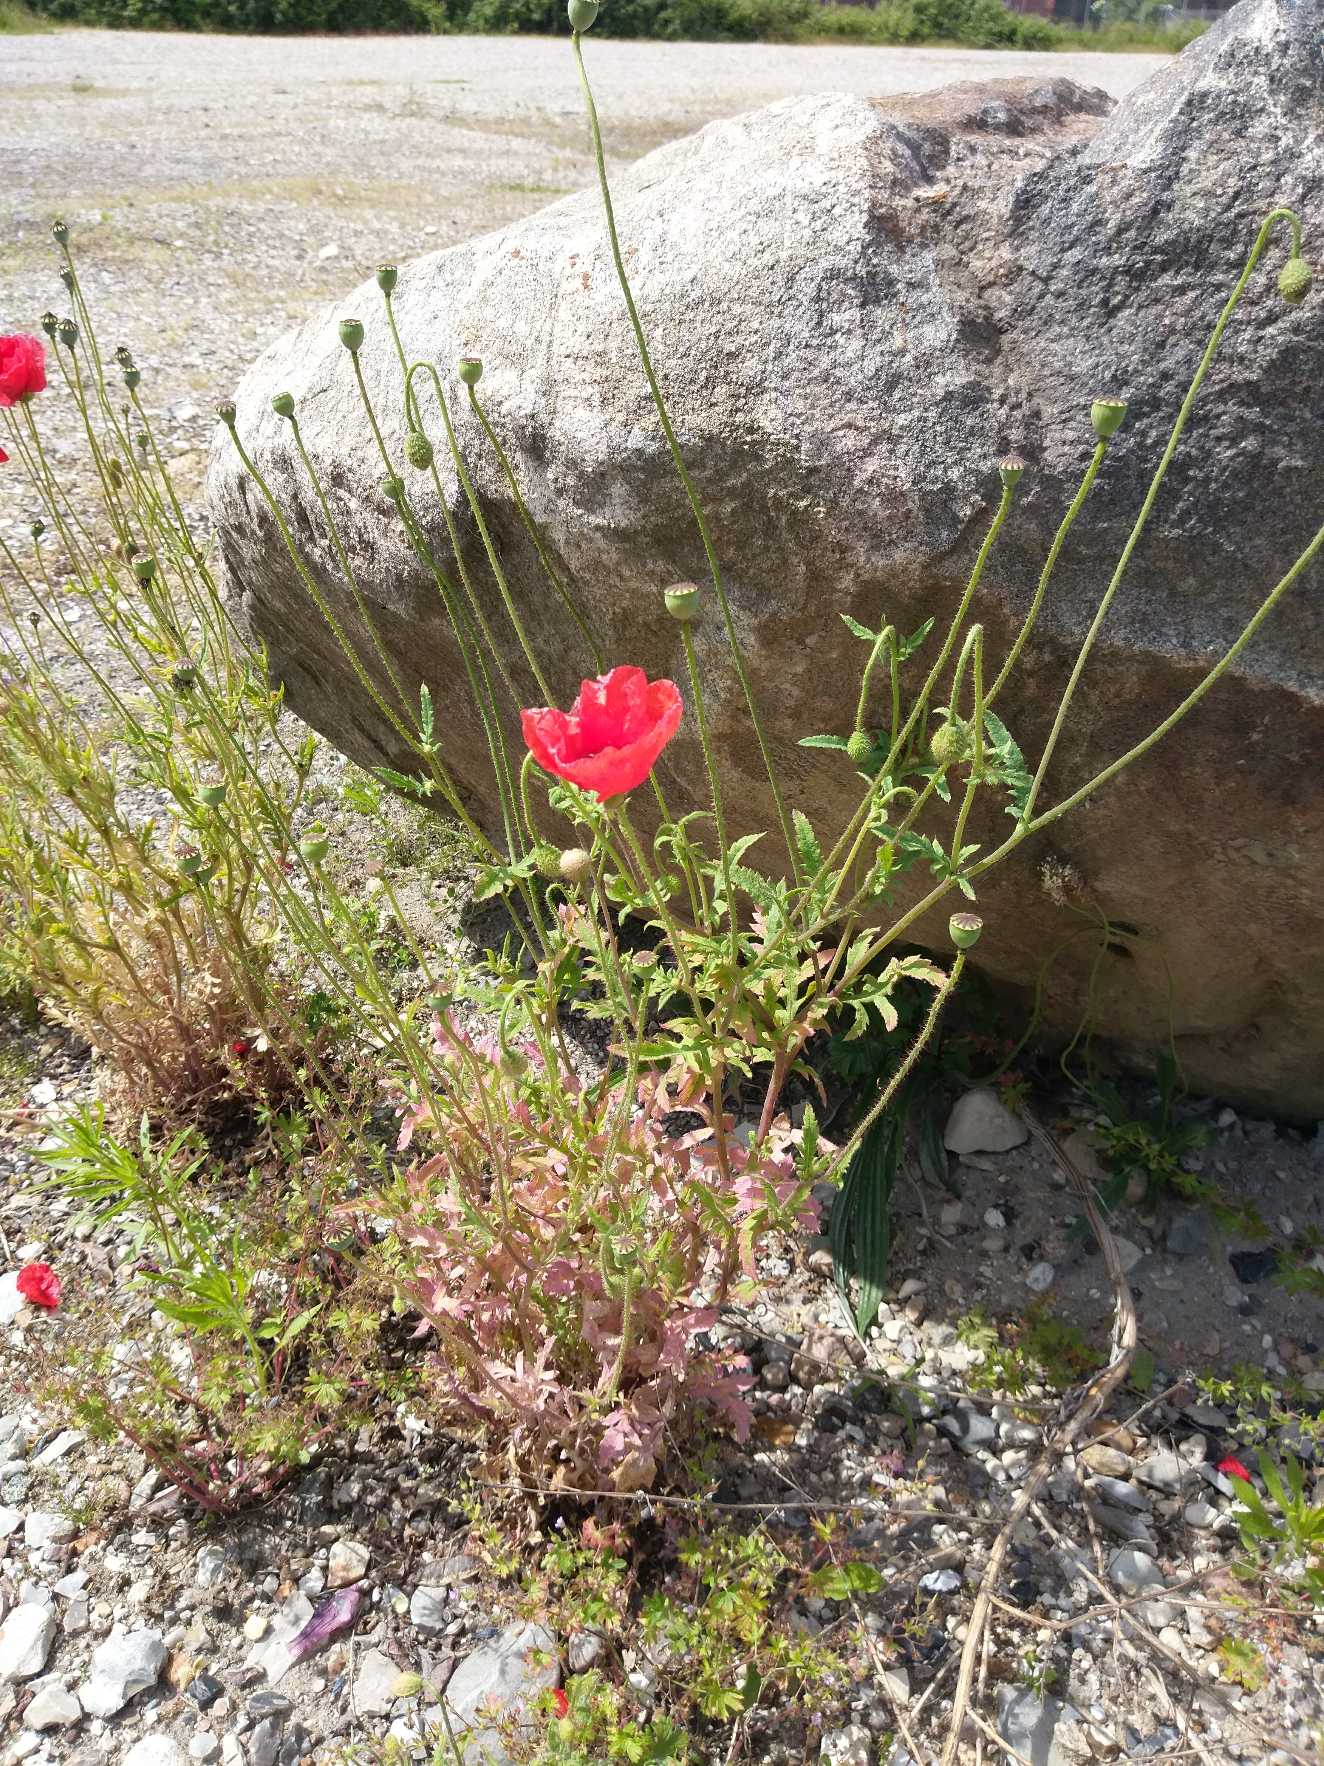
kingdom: Plantae
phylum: Tracheophyta
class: Magnoliopsida
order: Ranunculales
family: Papaveraceae
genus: Papaver
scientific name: Papaver rhoeas
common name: Korn-valmue
